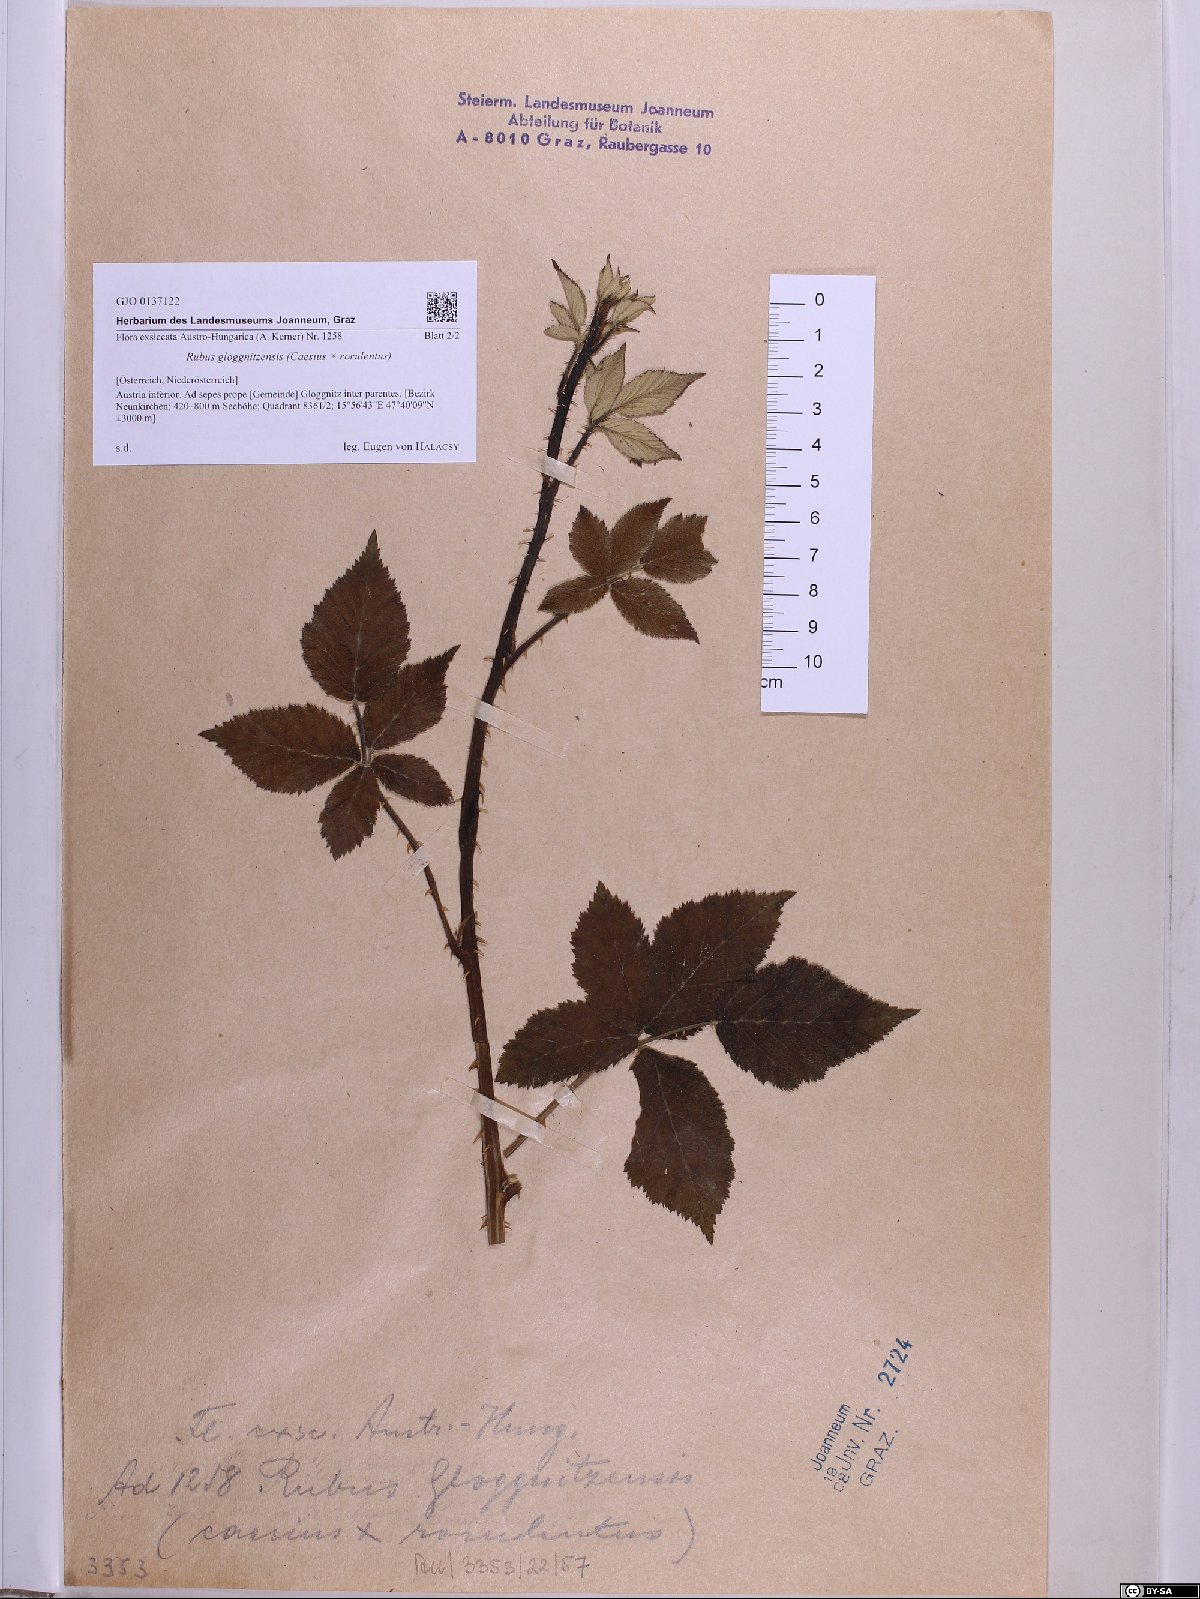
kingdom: Plantae
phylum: Tracheophyta
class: Magnoliopsida
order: Rosales
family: Rosaceae
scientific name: Rosaceae
